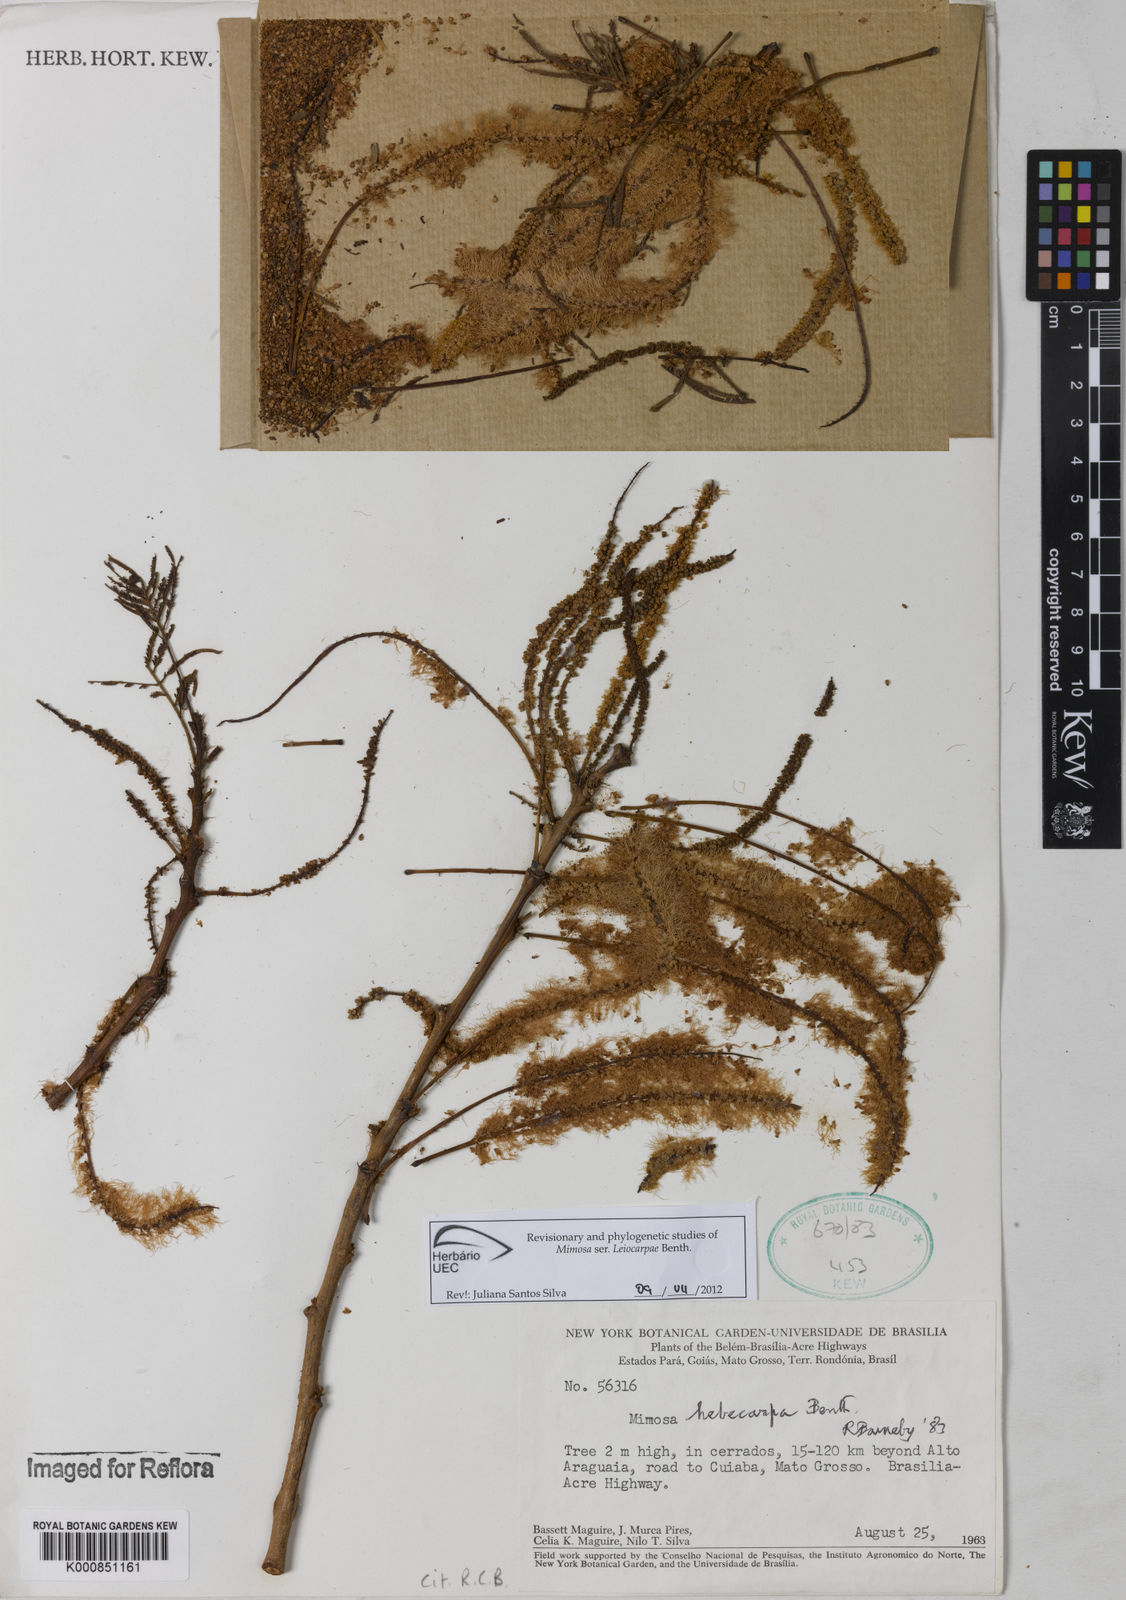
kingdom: Plantae
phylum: Tracheophyta
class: Magnoliopsida
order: Fabales
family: Fabaceae
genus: Mimosa
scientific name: Mimosa hebecarpa
